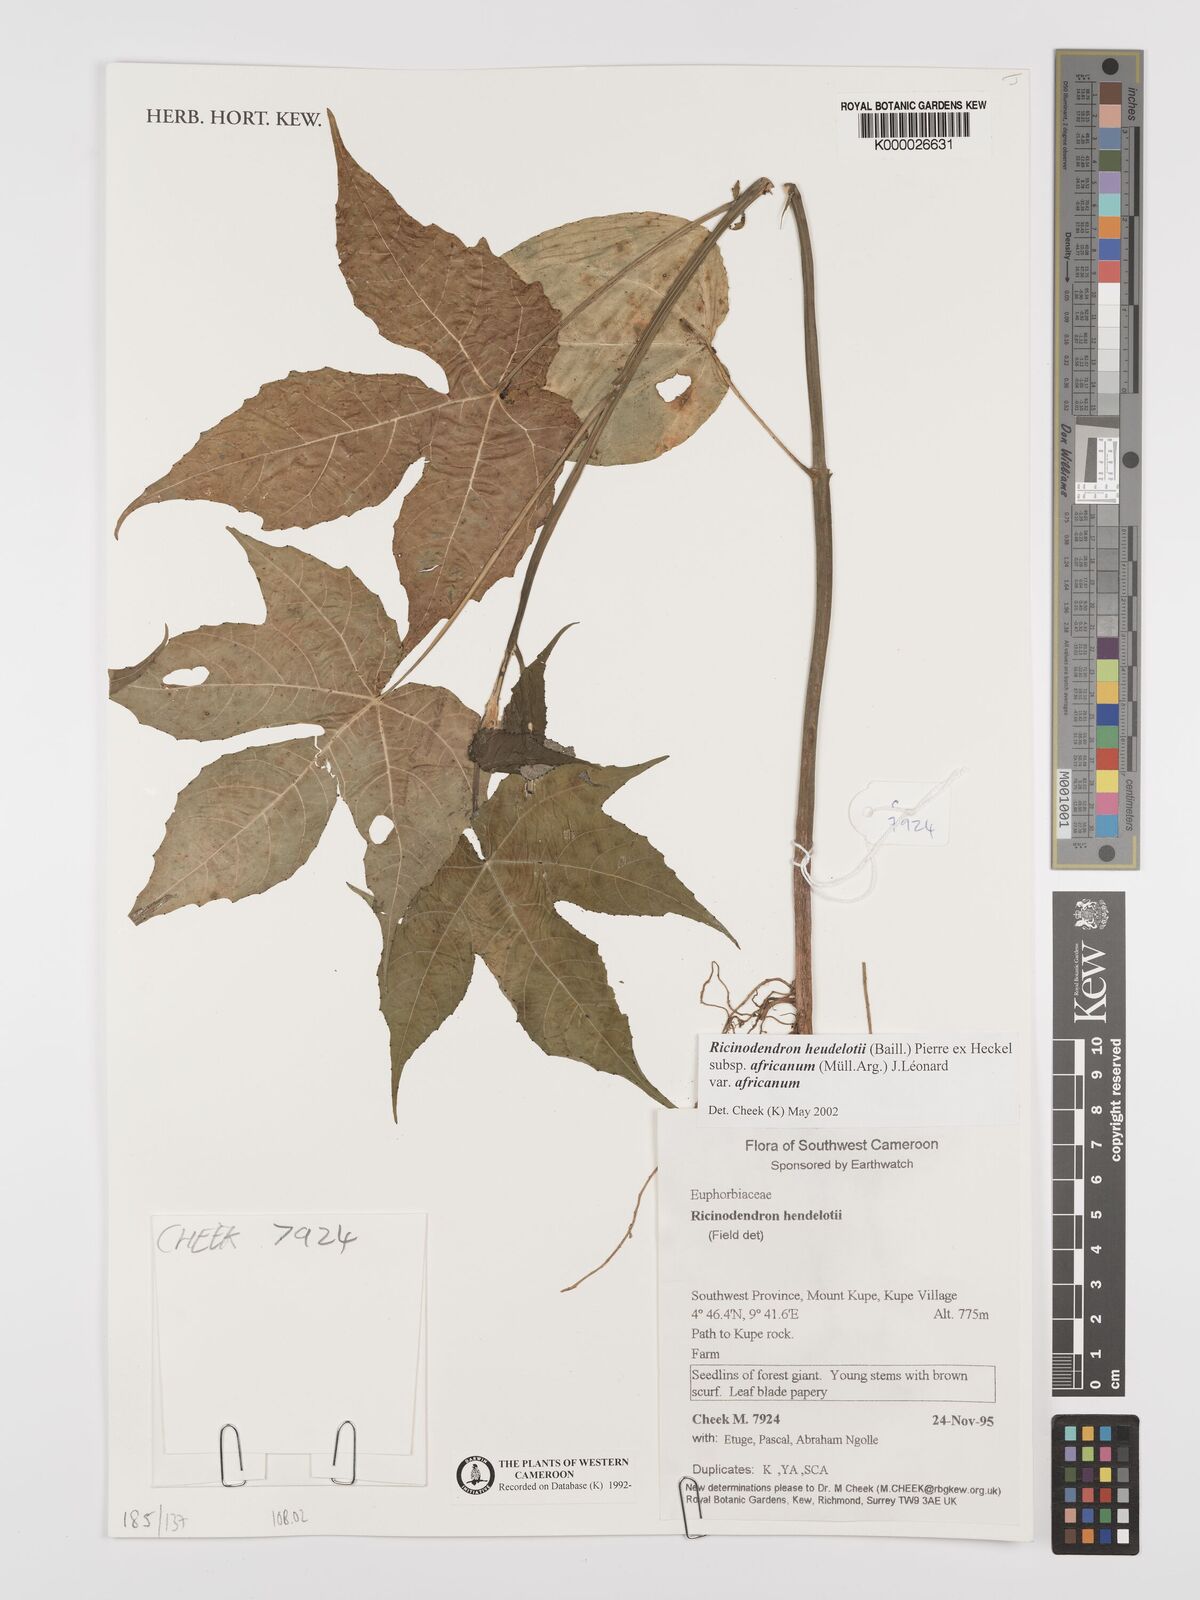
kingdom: Plantae
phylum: Tracheophyta
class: Magnoliopsida
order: Malpighiales
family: Euphorbiaceae
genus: Ricinodendron
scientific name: Ricinodendron heudelotii
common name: African nut-tree
